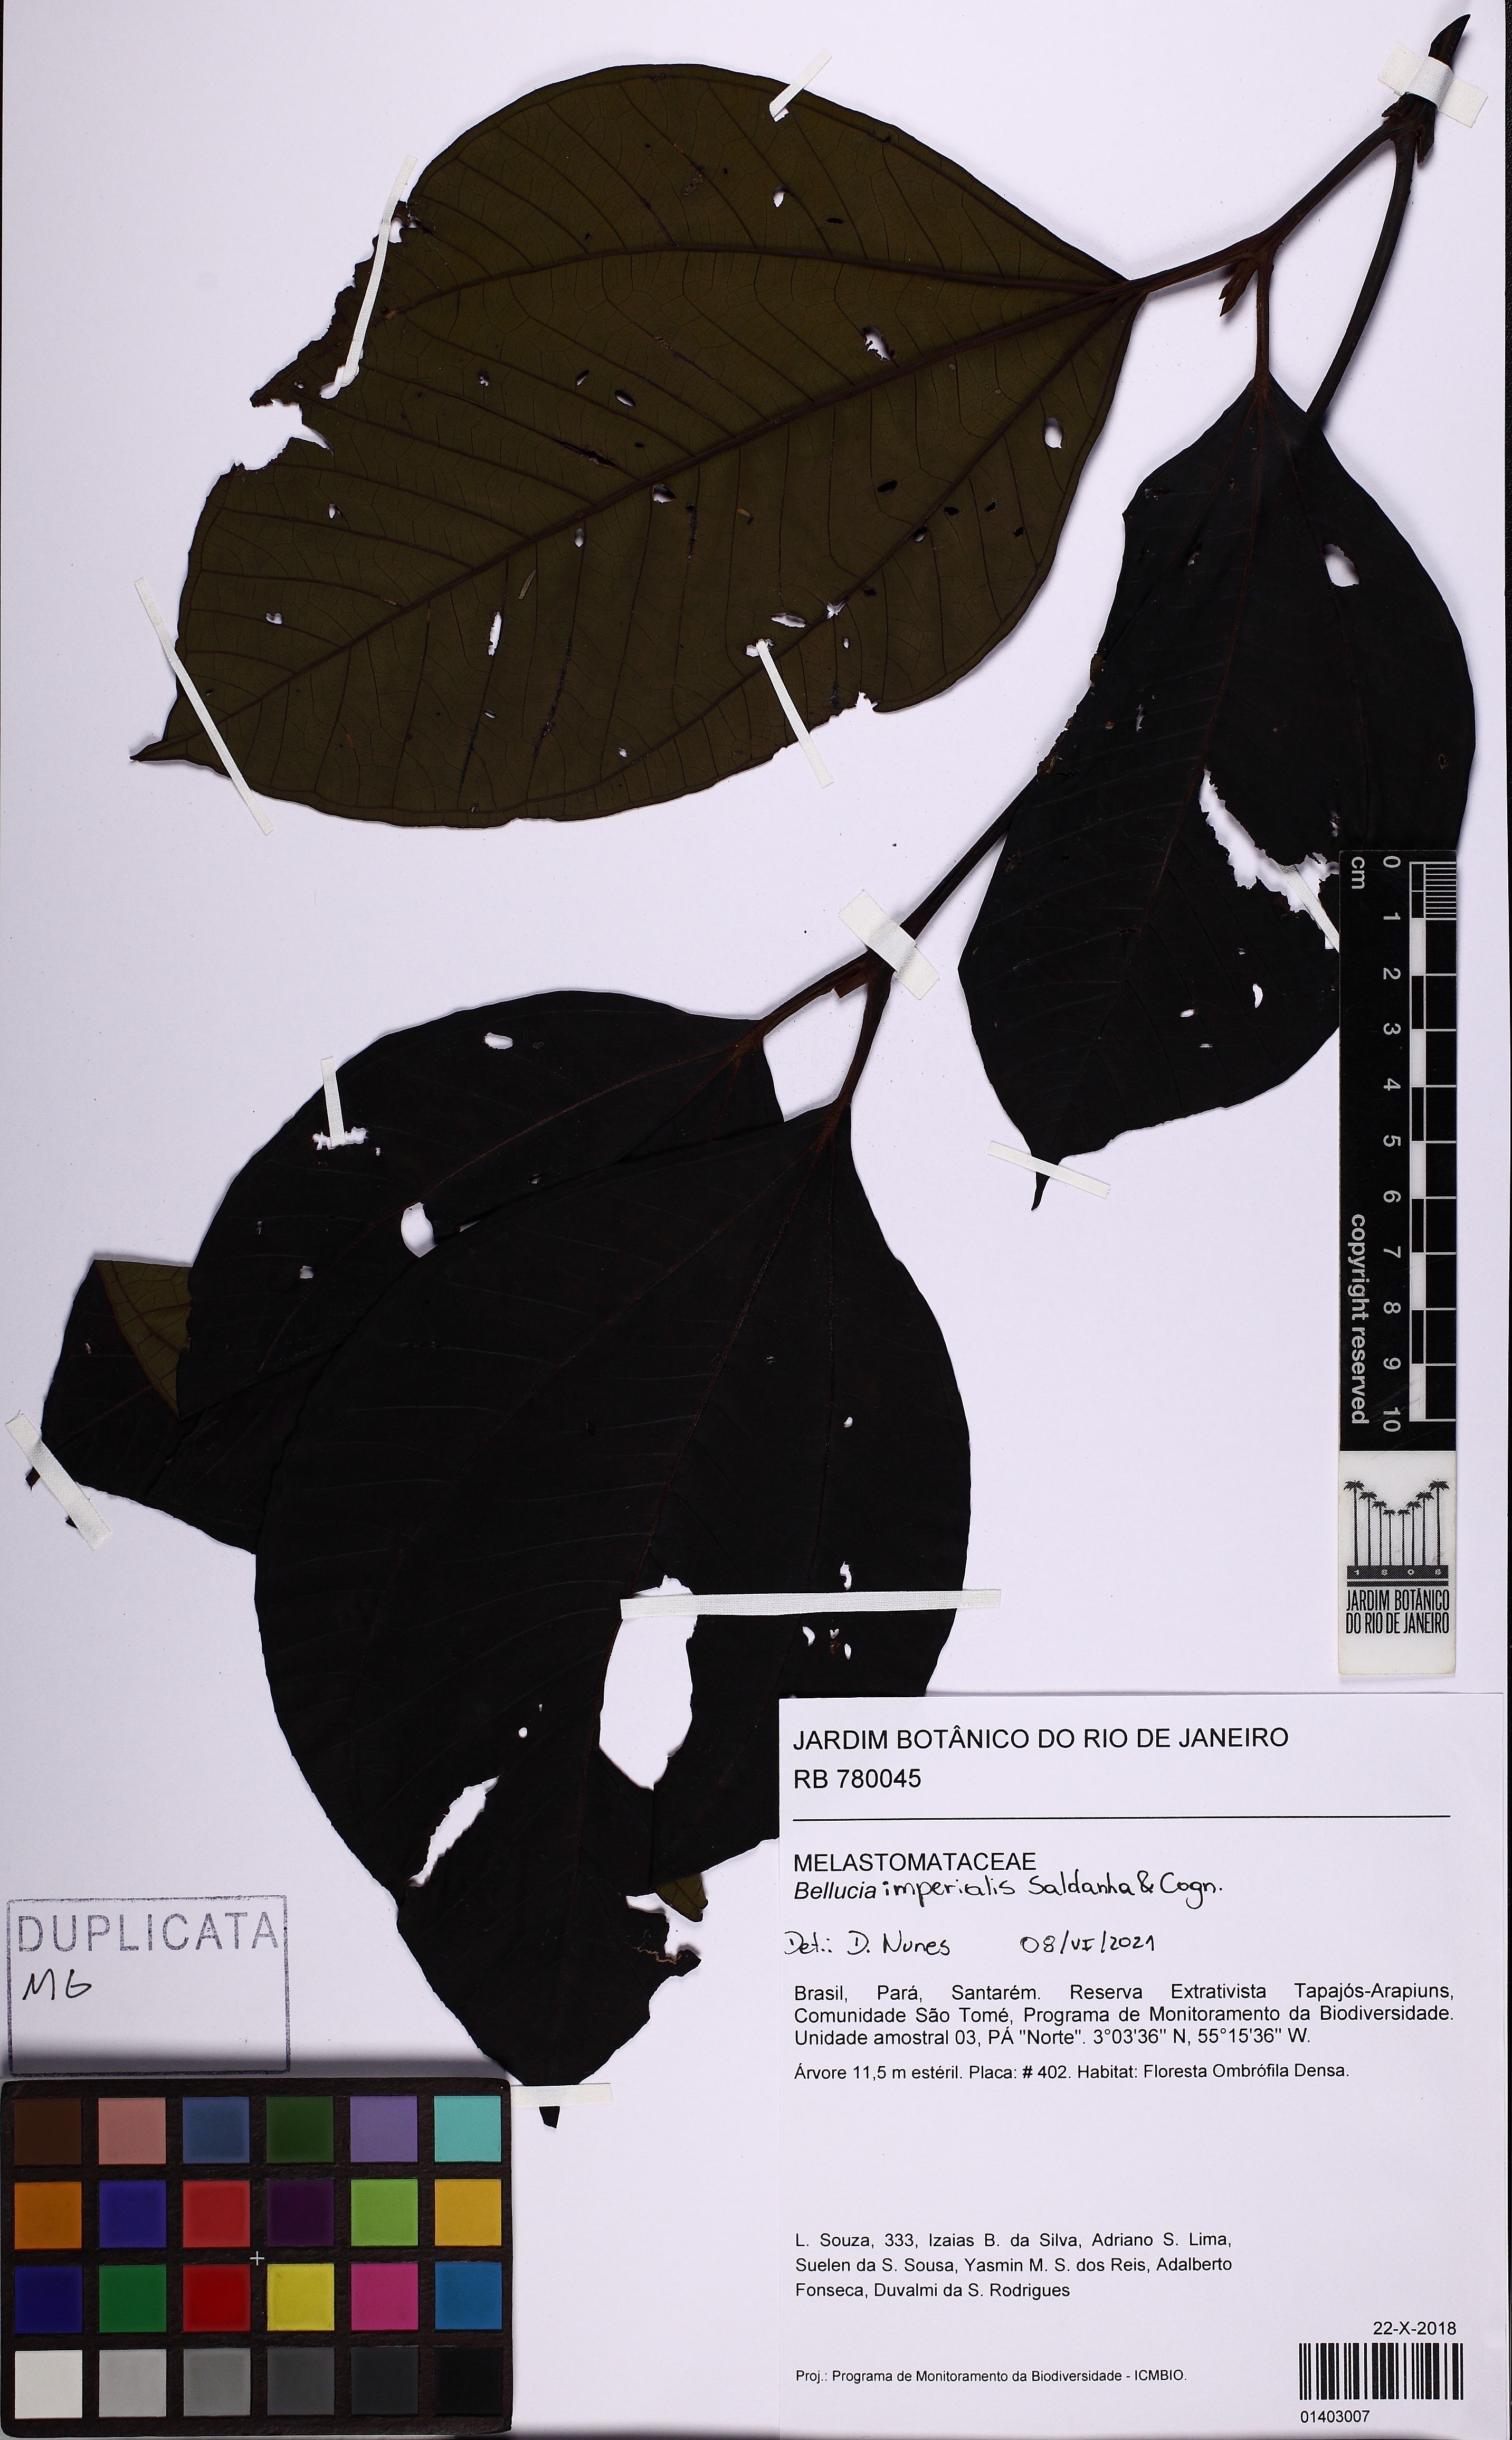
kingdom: Plantae
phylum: Tracheophyta
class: Magnoliopsida
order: Myrtales
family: Melastomataceae
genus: Bellucia
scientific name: Bellucia imperialis
